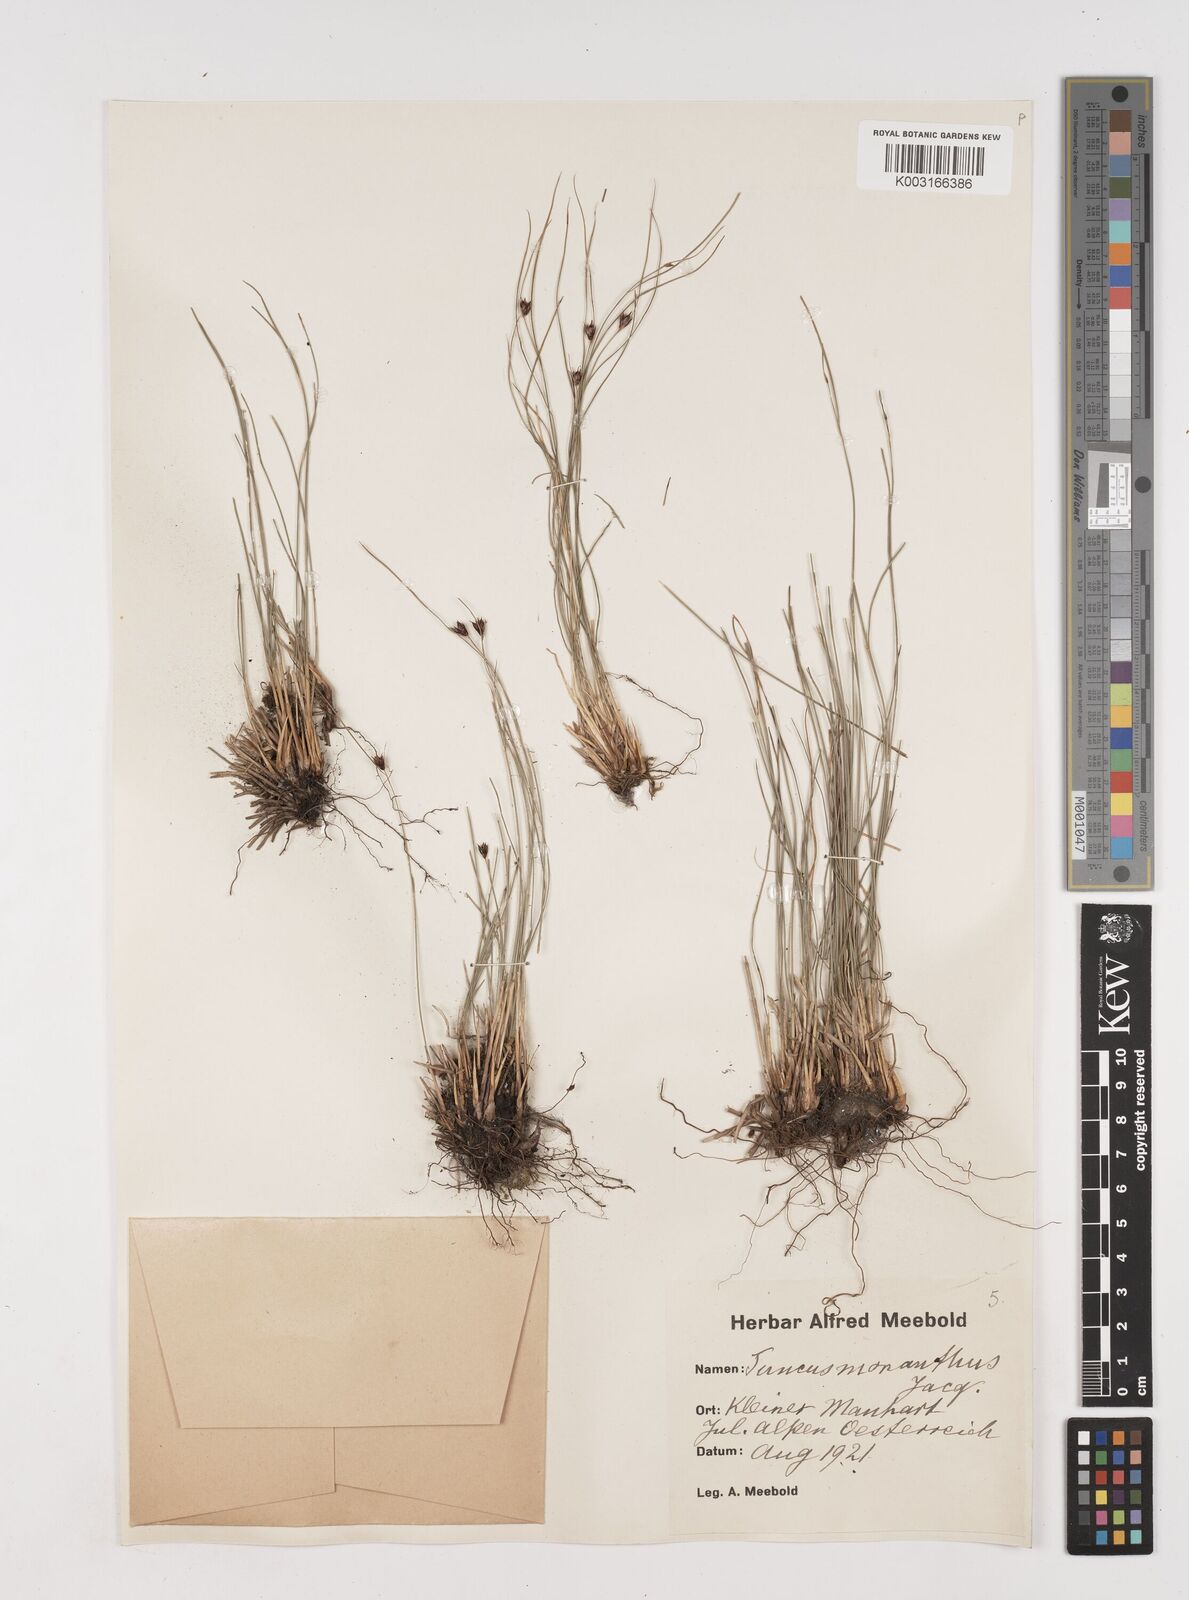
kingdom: Plantae
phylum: Tracheophyta
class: Liliopsida
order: Poales
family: Juncaceae
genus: Oreojuncus
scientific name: Oreojuncus trifidus
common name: Highland rush
